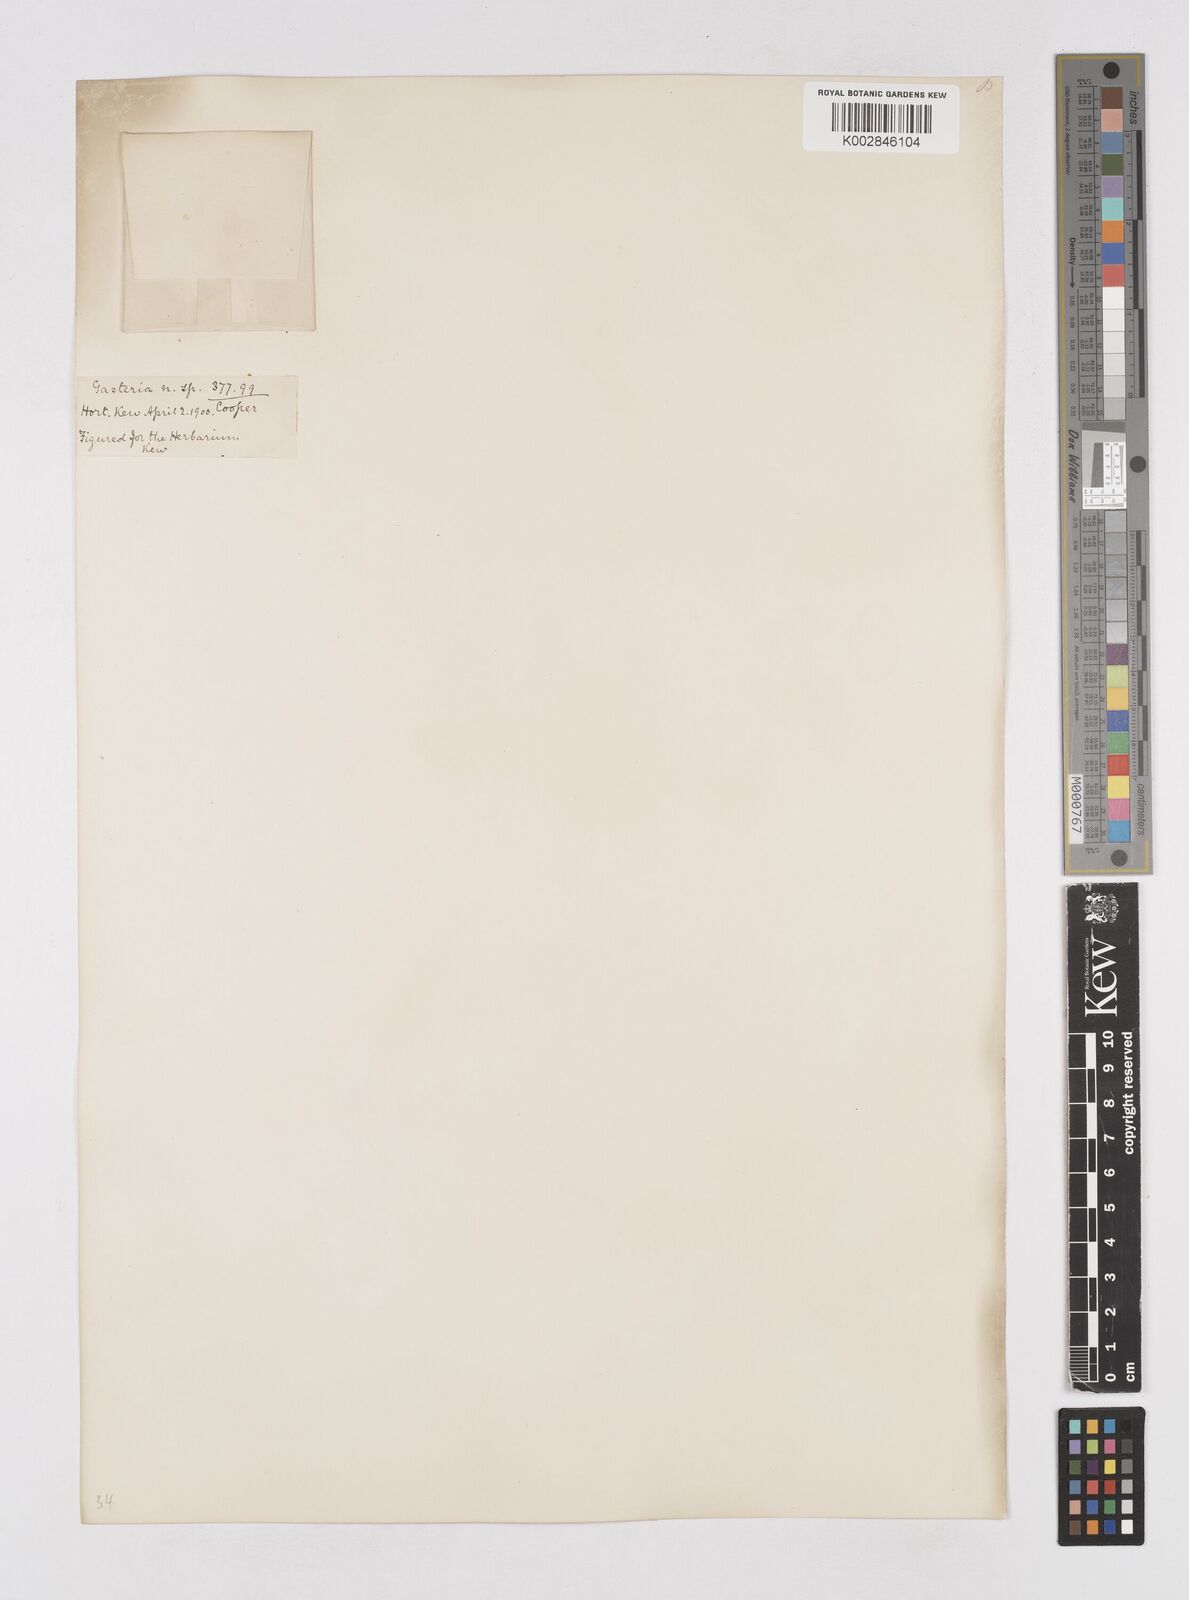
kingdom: Plantae
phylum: Tracheophyta
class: Liliopsida
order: Asparagales
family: Asphodelaceae
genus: Gasteria
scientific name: Gasteria
